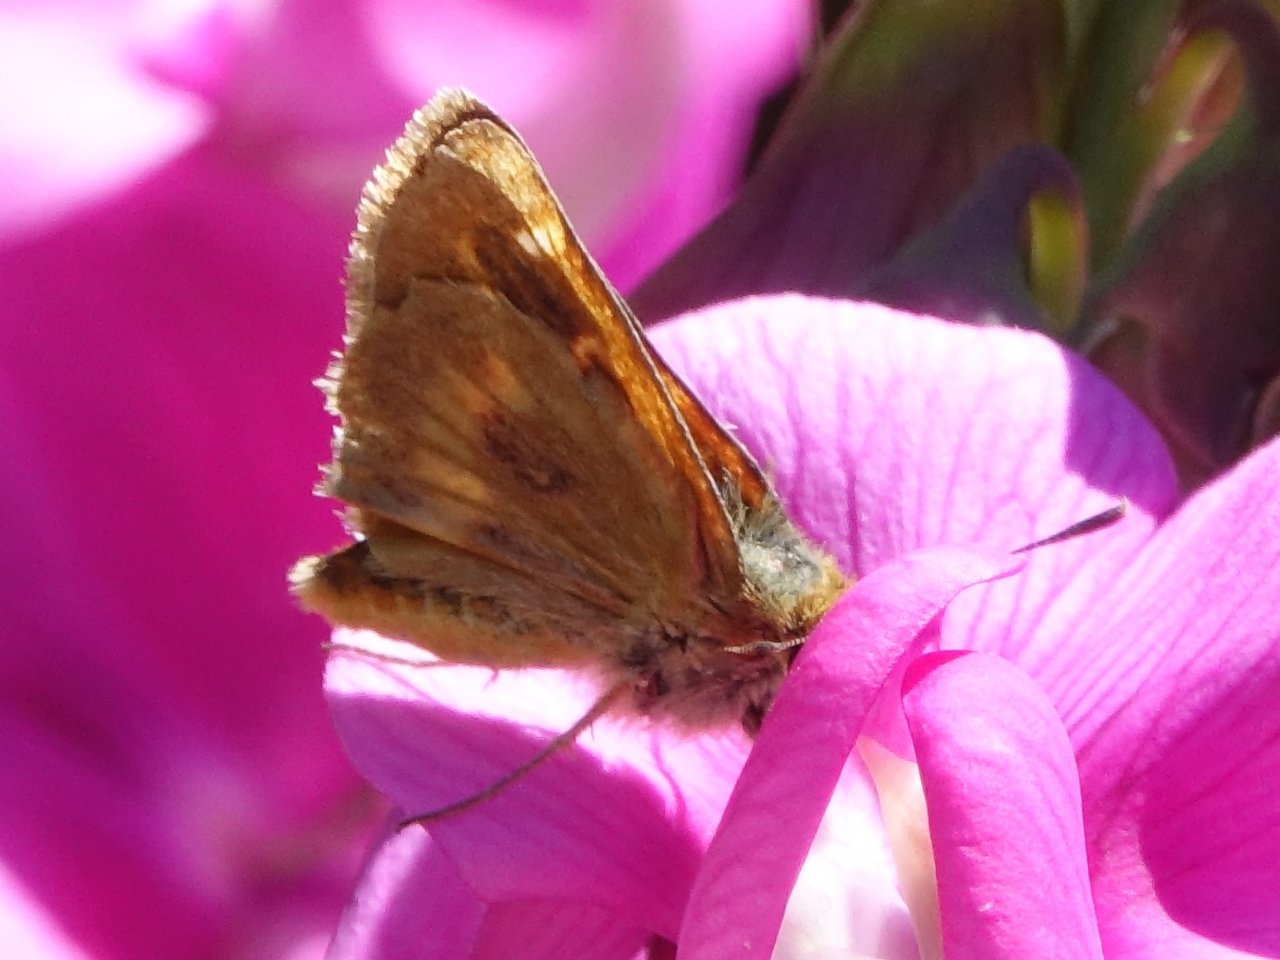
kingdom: Animalia
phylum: Arthropoda
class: Insecta
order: Lepidoptera
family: Hesperiidae
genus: Ochlodes
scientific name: Ochlodes agricola
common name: Rural Skipper
